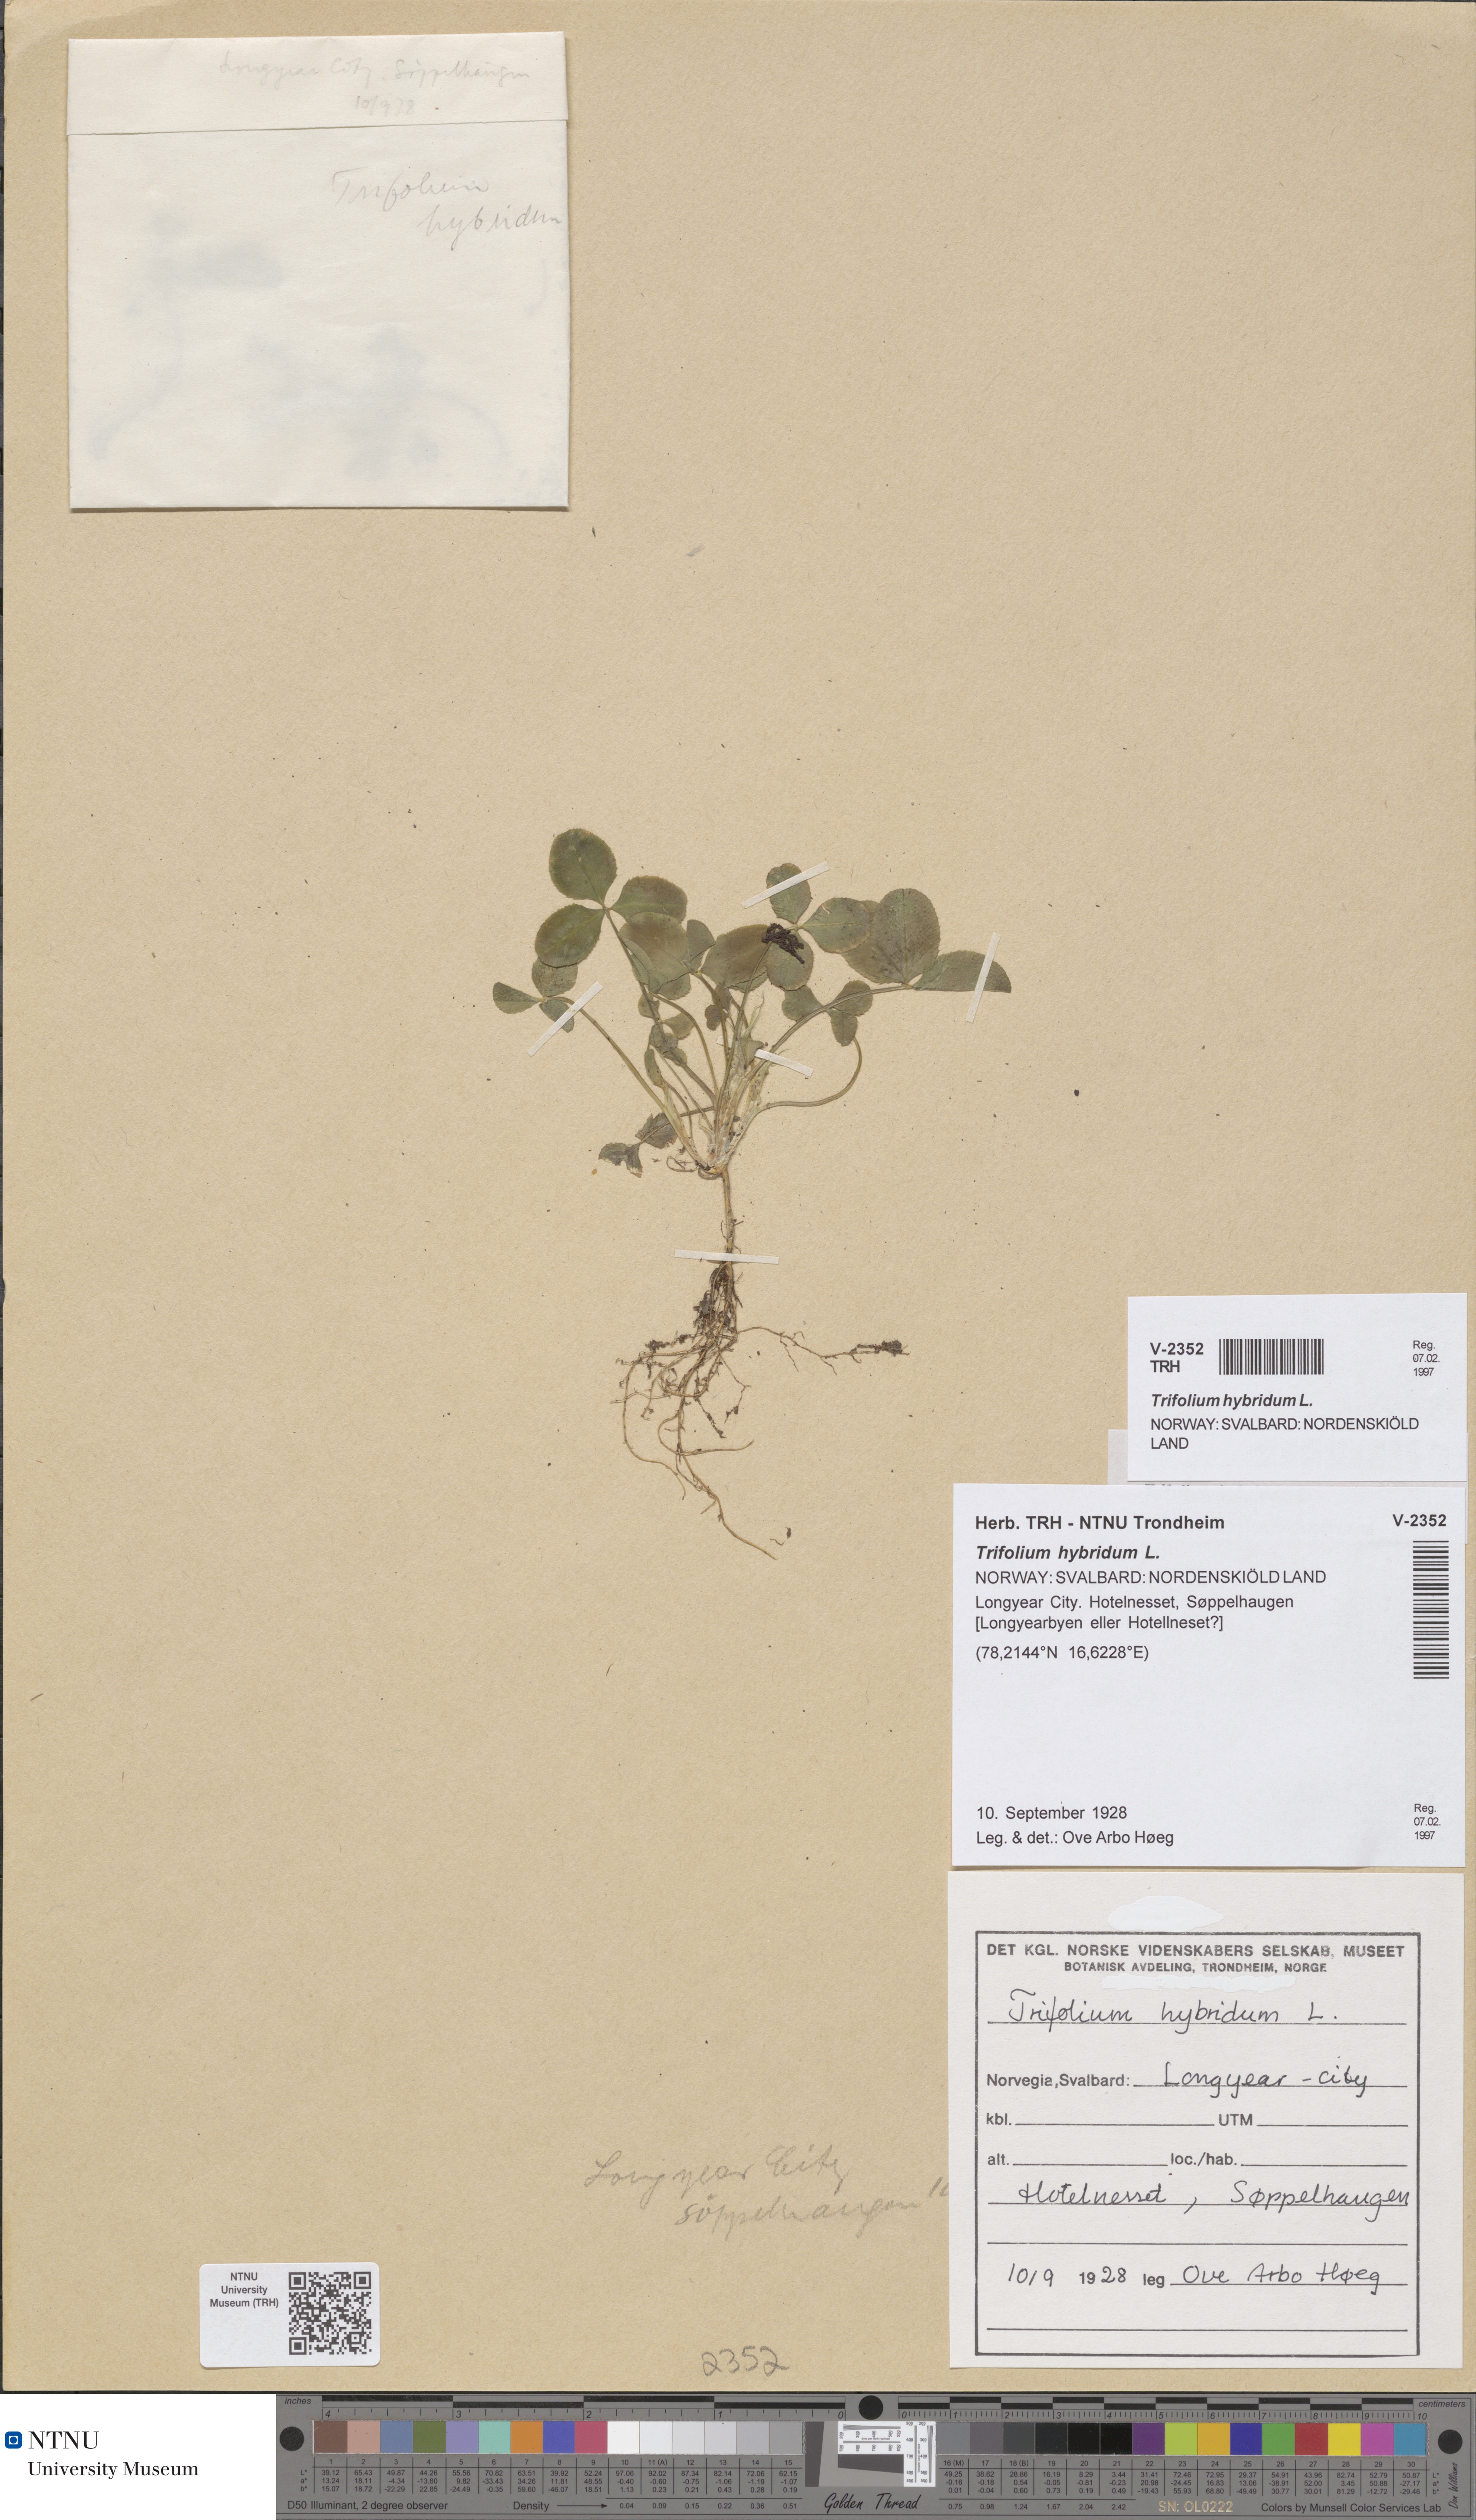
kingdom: Plantae
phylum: Tracheophyta
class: Magnoliopsida
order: Fabales
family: Fabaceae
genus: Trifolium
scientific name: Trifolium hybridum
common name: Alsike clover
